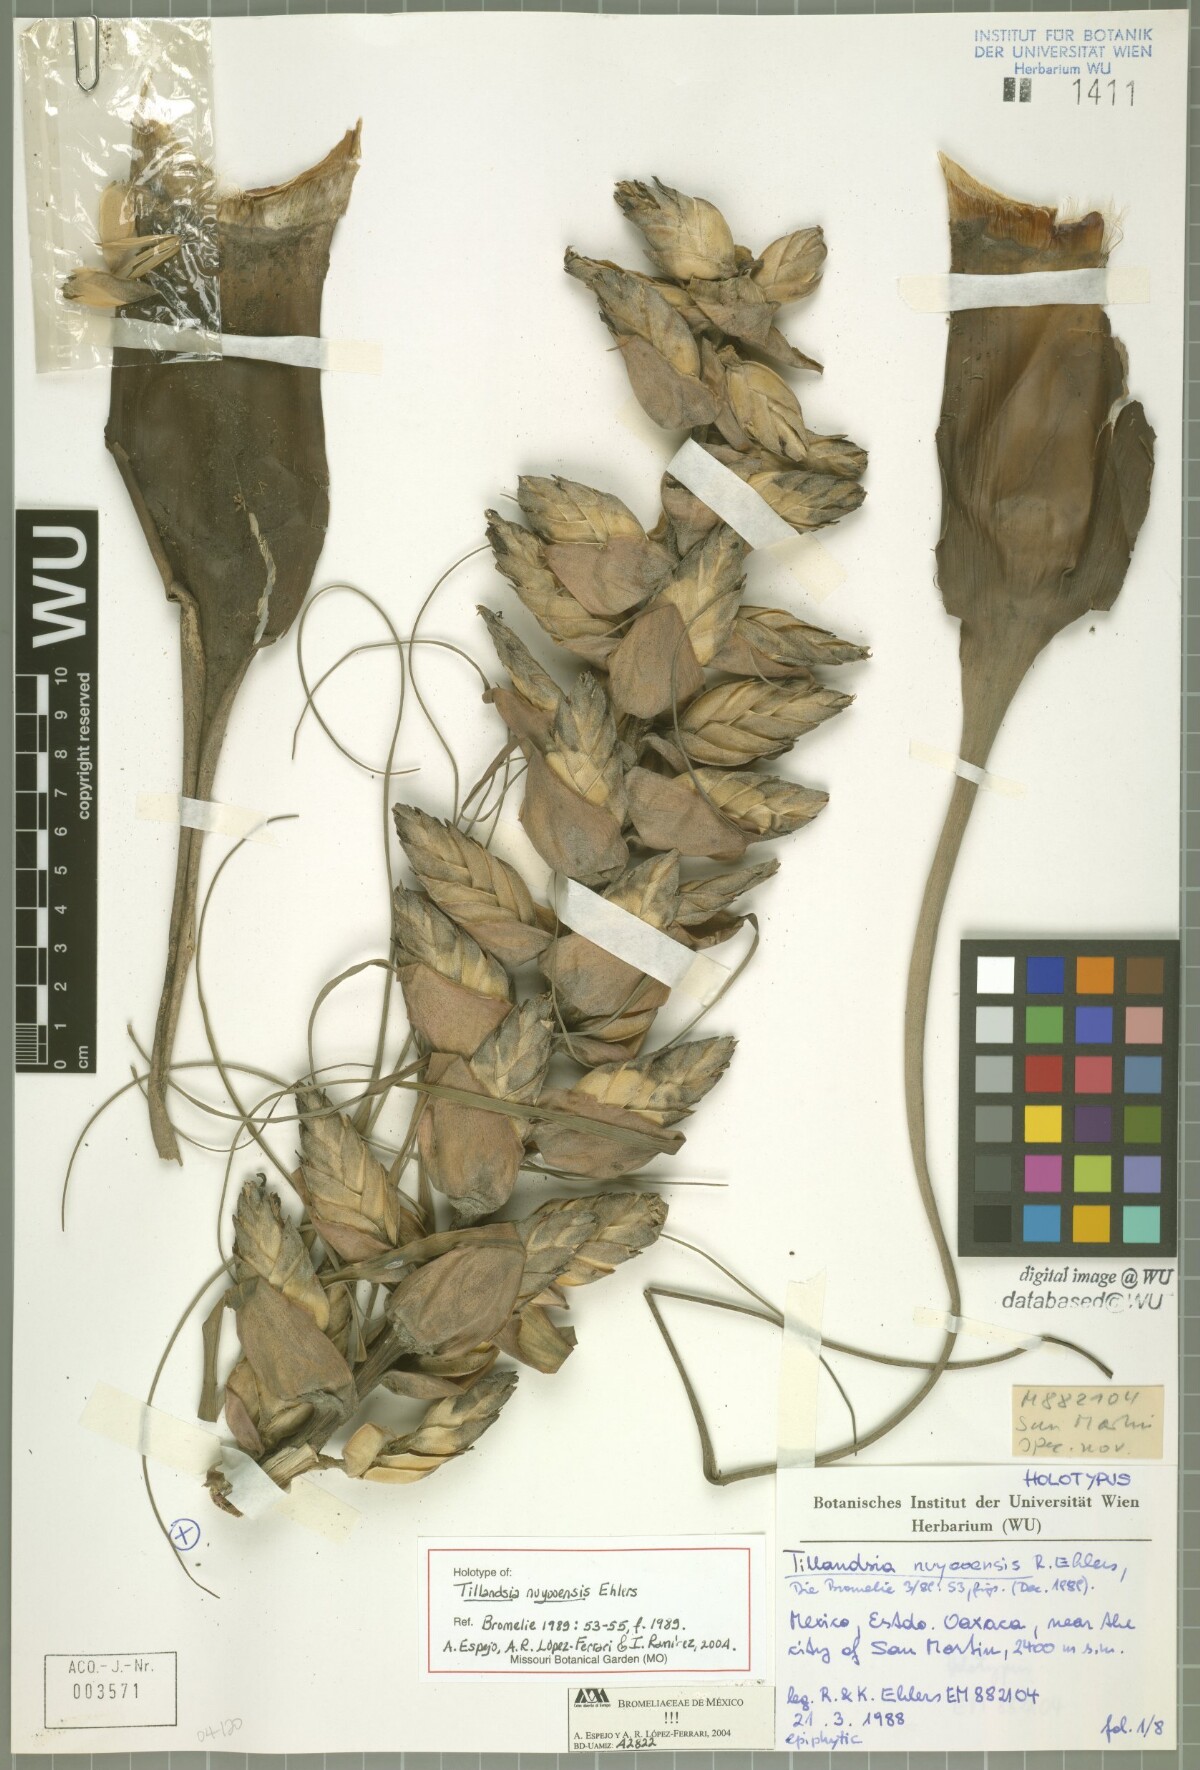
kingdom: Plantae
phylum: Tracheophyta
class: Liliopsida
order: Poales
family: Bromeliaceae
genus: Tillandsia
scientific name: Tillandsia nuyooensis
